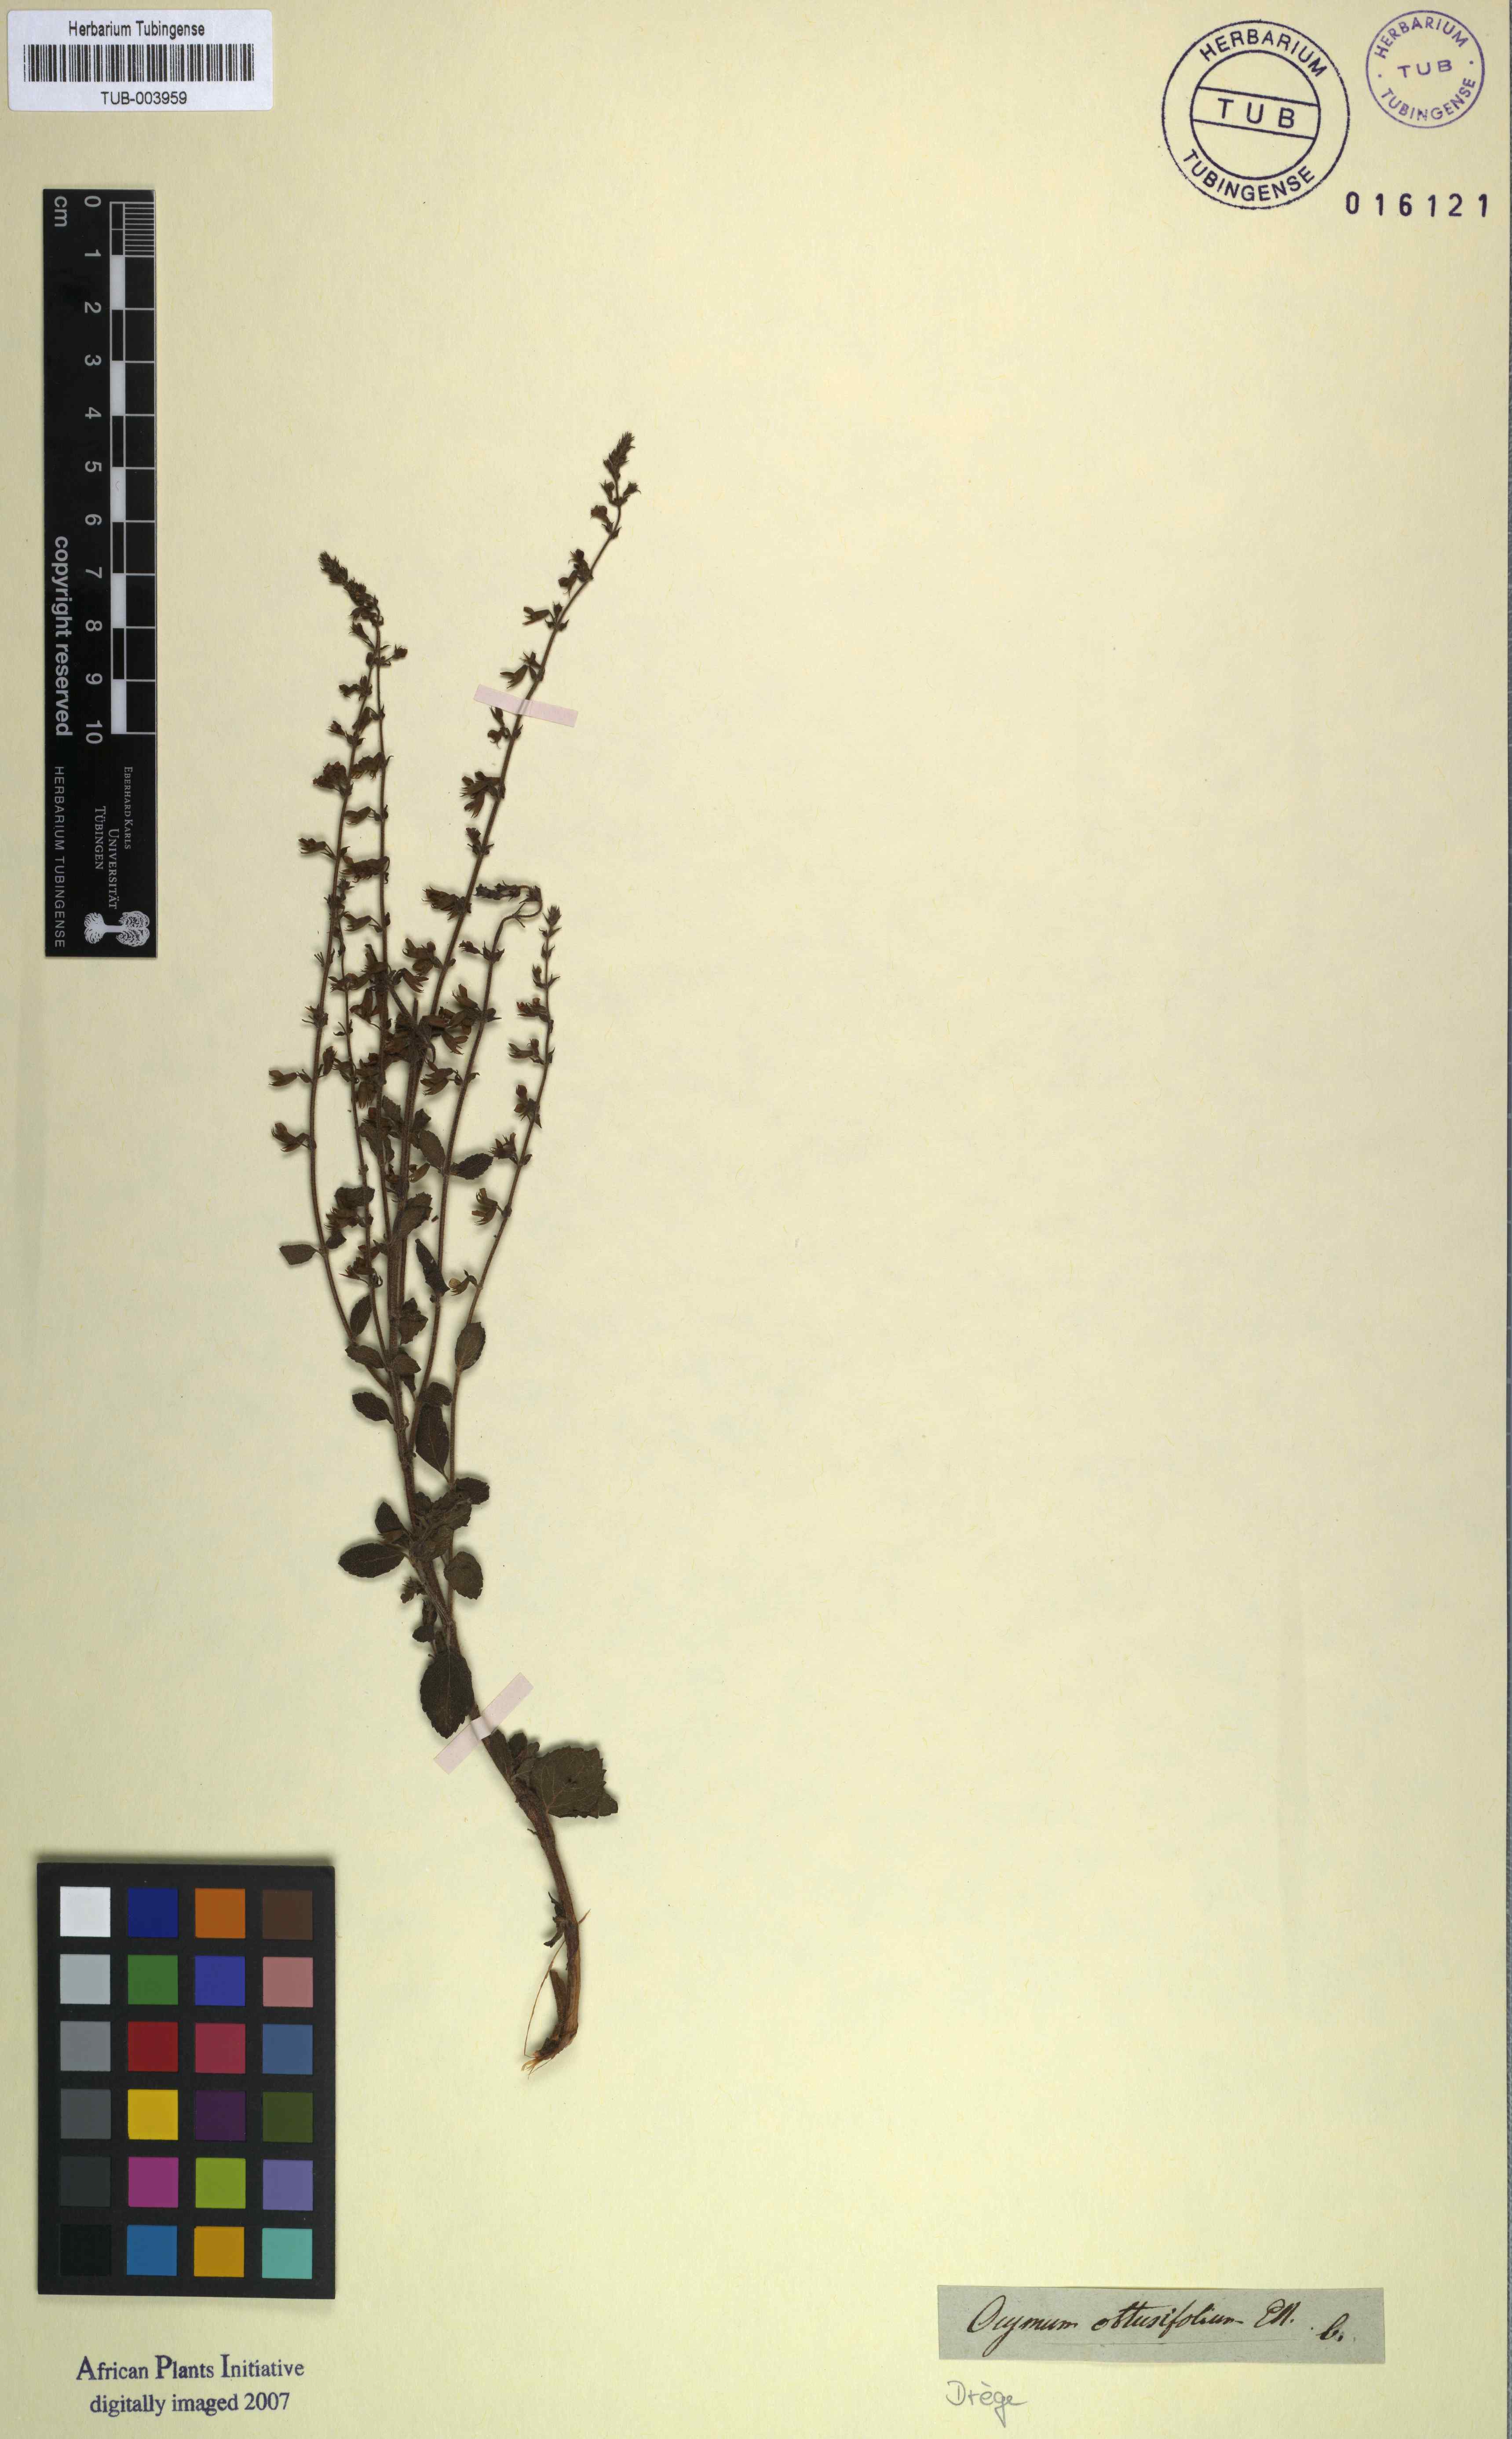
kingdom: Plantae
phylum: Tracheophyta
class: Magnoliopsida
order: Lamiales
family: Lamiaceae
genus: Endostemon
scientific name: Endostemon obtusifolius
